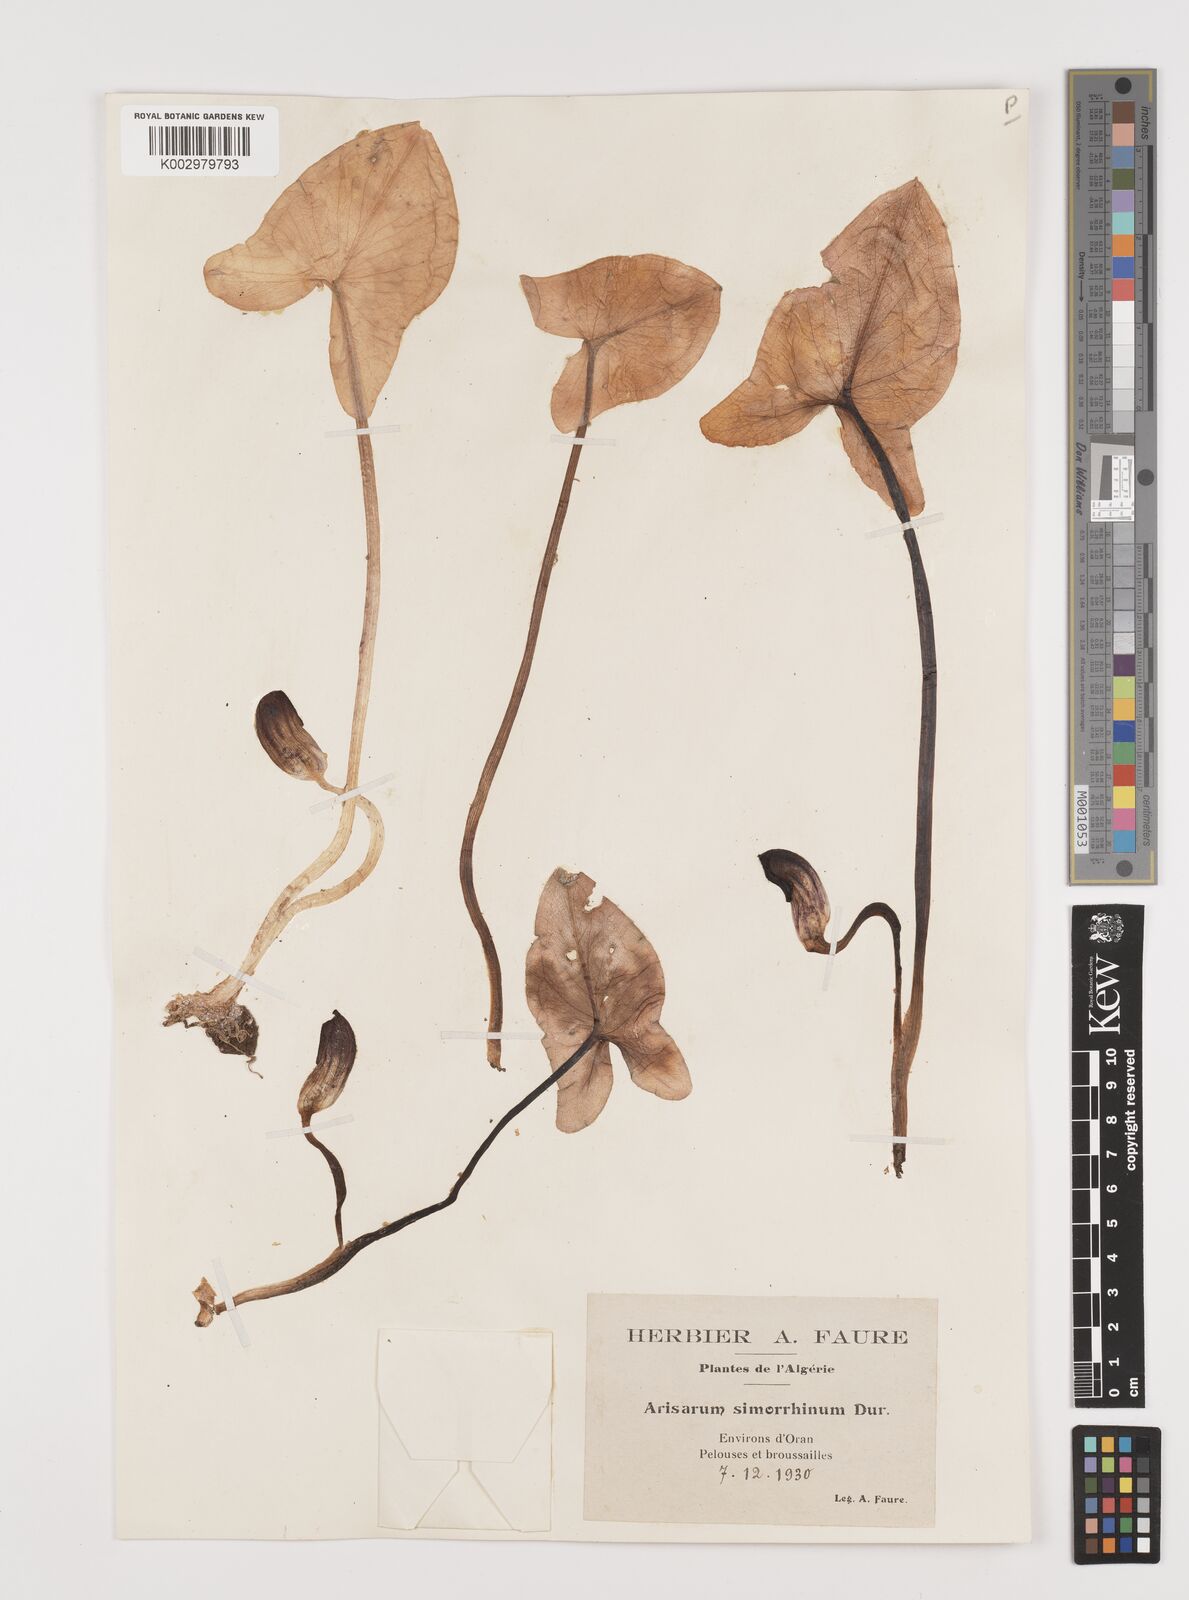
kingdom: Plantae
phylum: Tracheophyta
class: Liliopsida
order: Alismatales
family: Araceae
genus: Arisarum
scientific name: Arisarum simorrhinum
